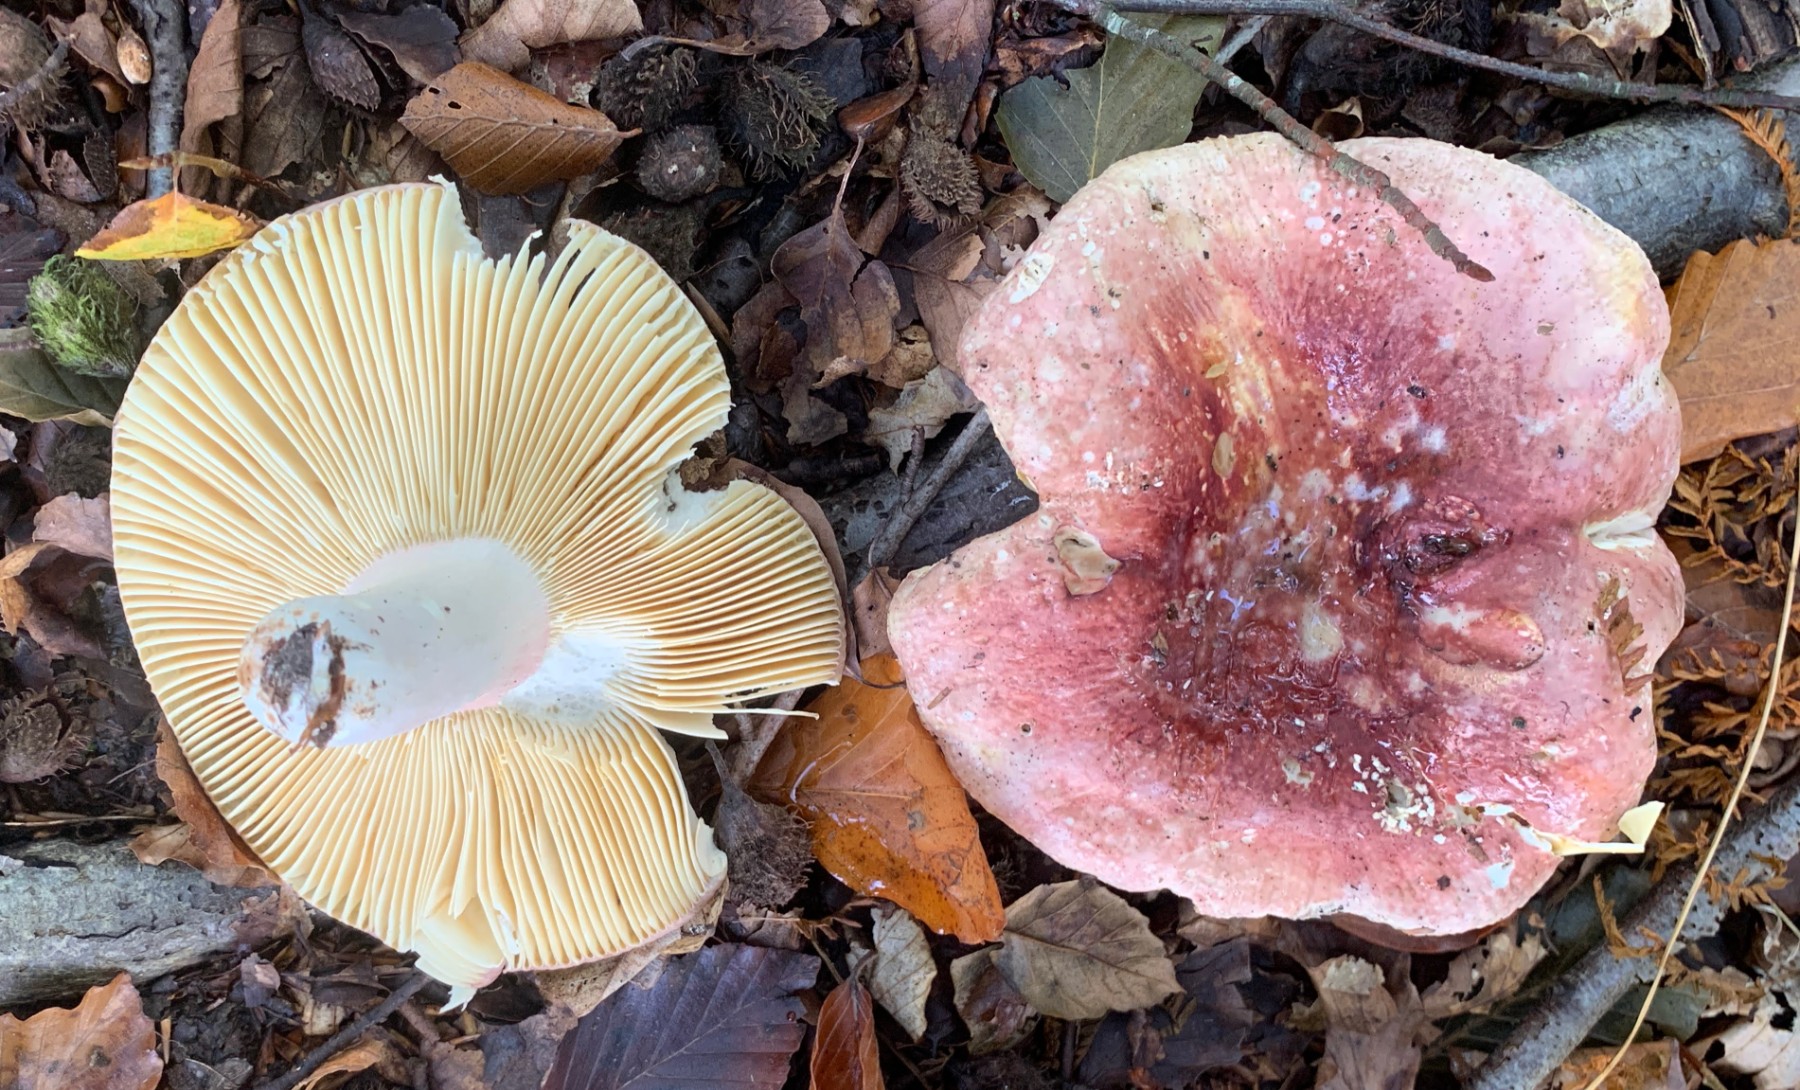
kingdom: Fungi
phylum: Basidiomycota
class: Agaricomycetes
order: Russulales
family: Russulaceae
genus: Russula
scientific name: Russula olivacea
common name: stor skørhat
